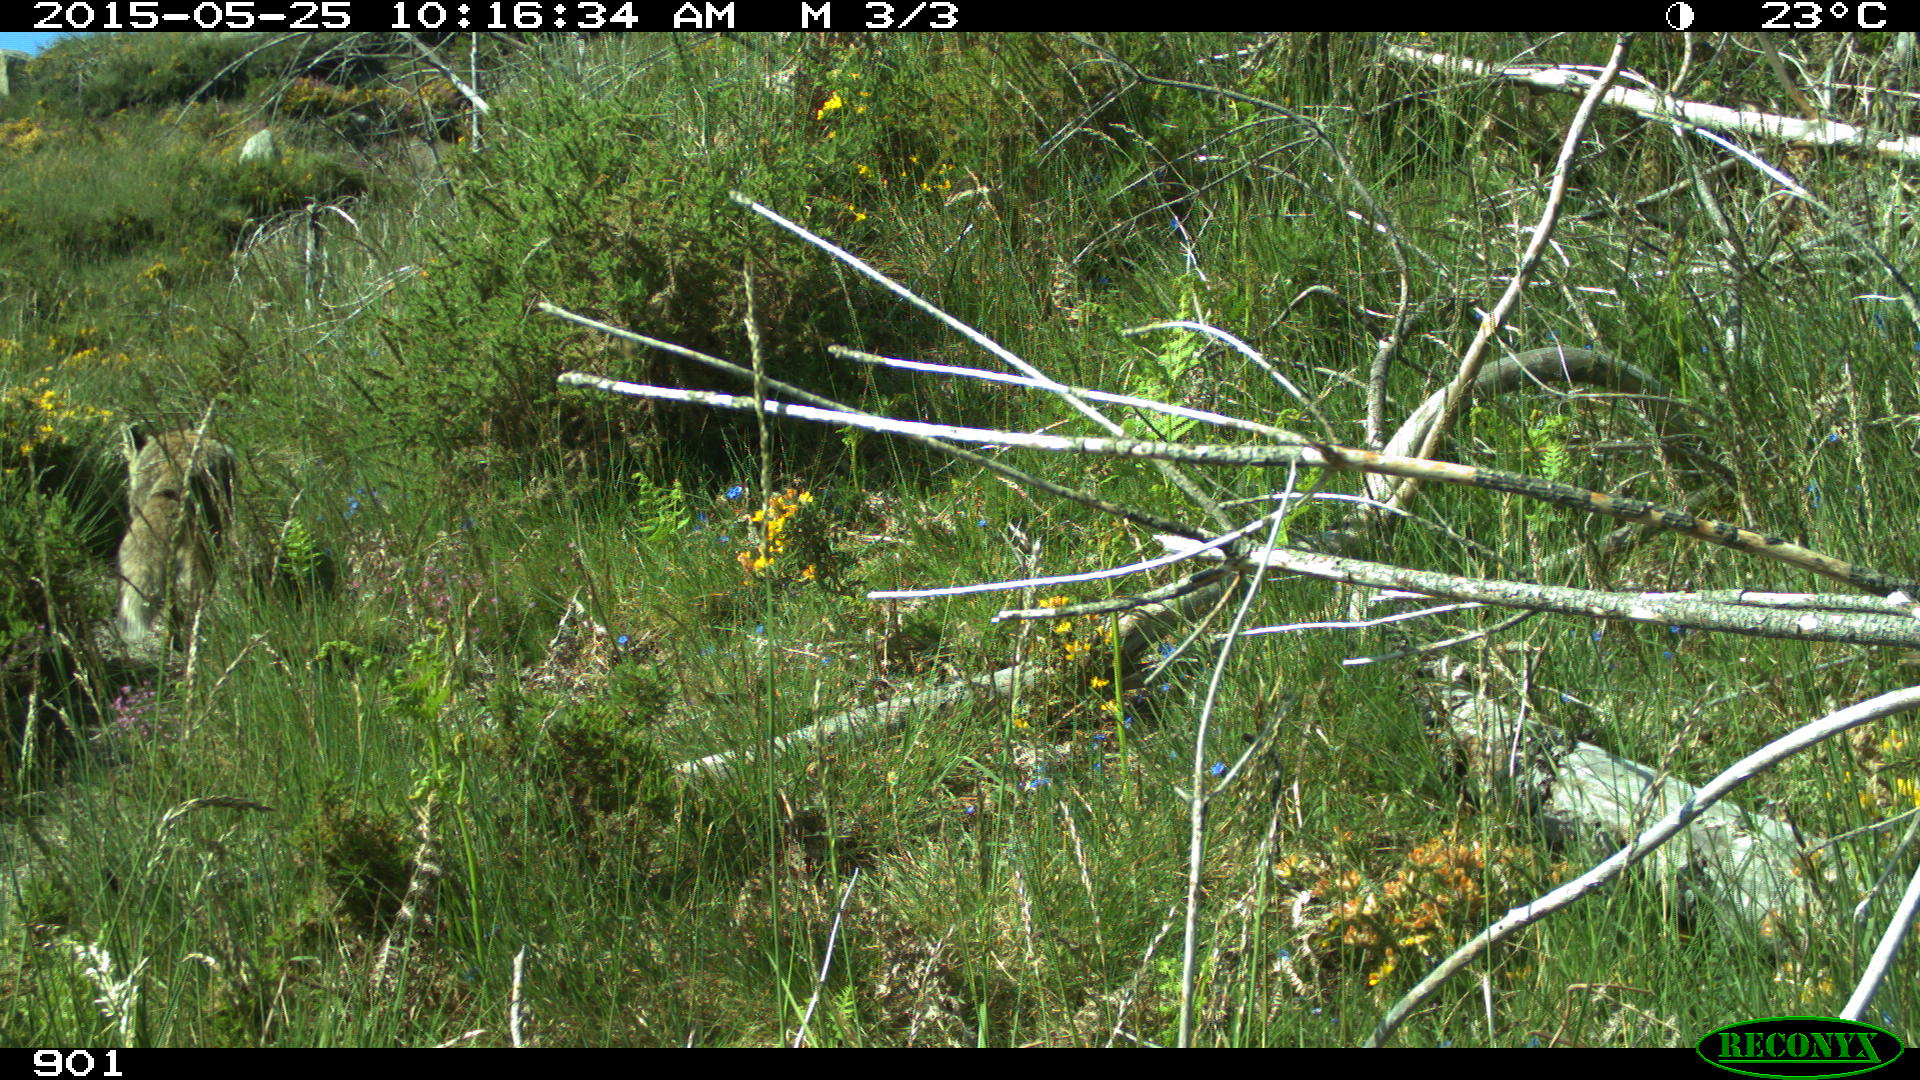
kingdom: Animalia
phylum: Chordata
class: Mammalia
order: Carnivora
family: Canidae
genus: Vulpes
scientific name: Vulpes vulpes
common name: Red fox
